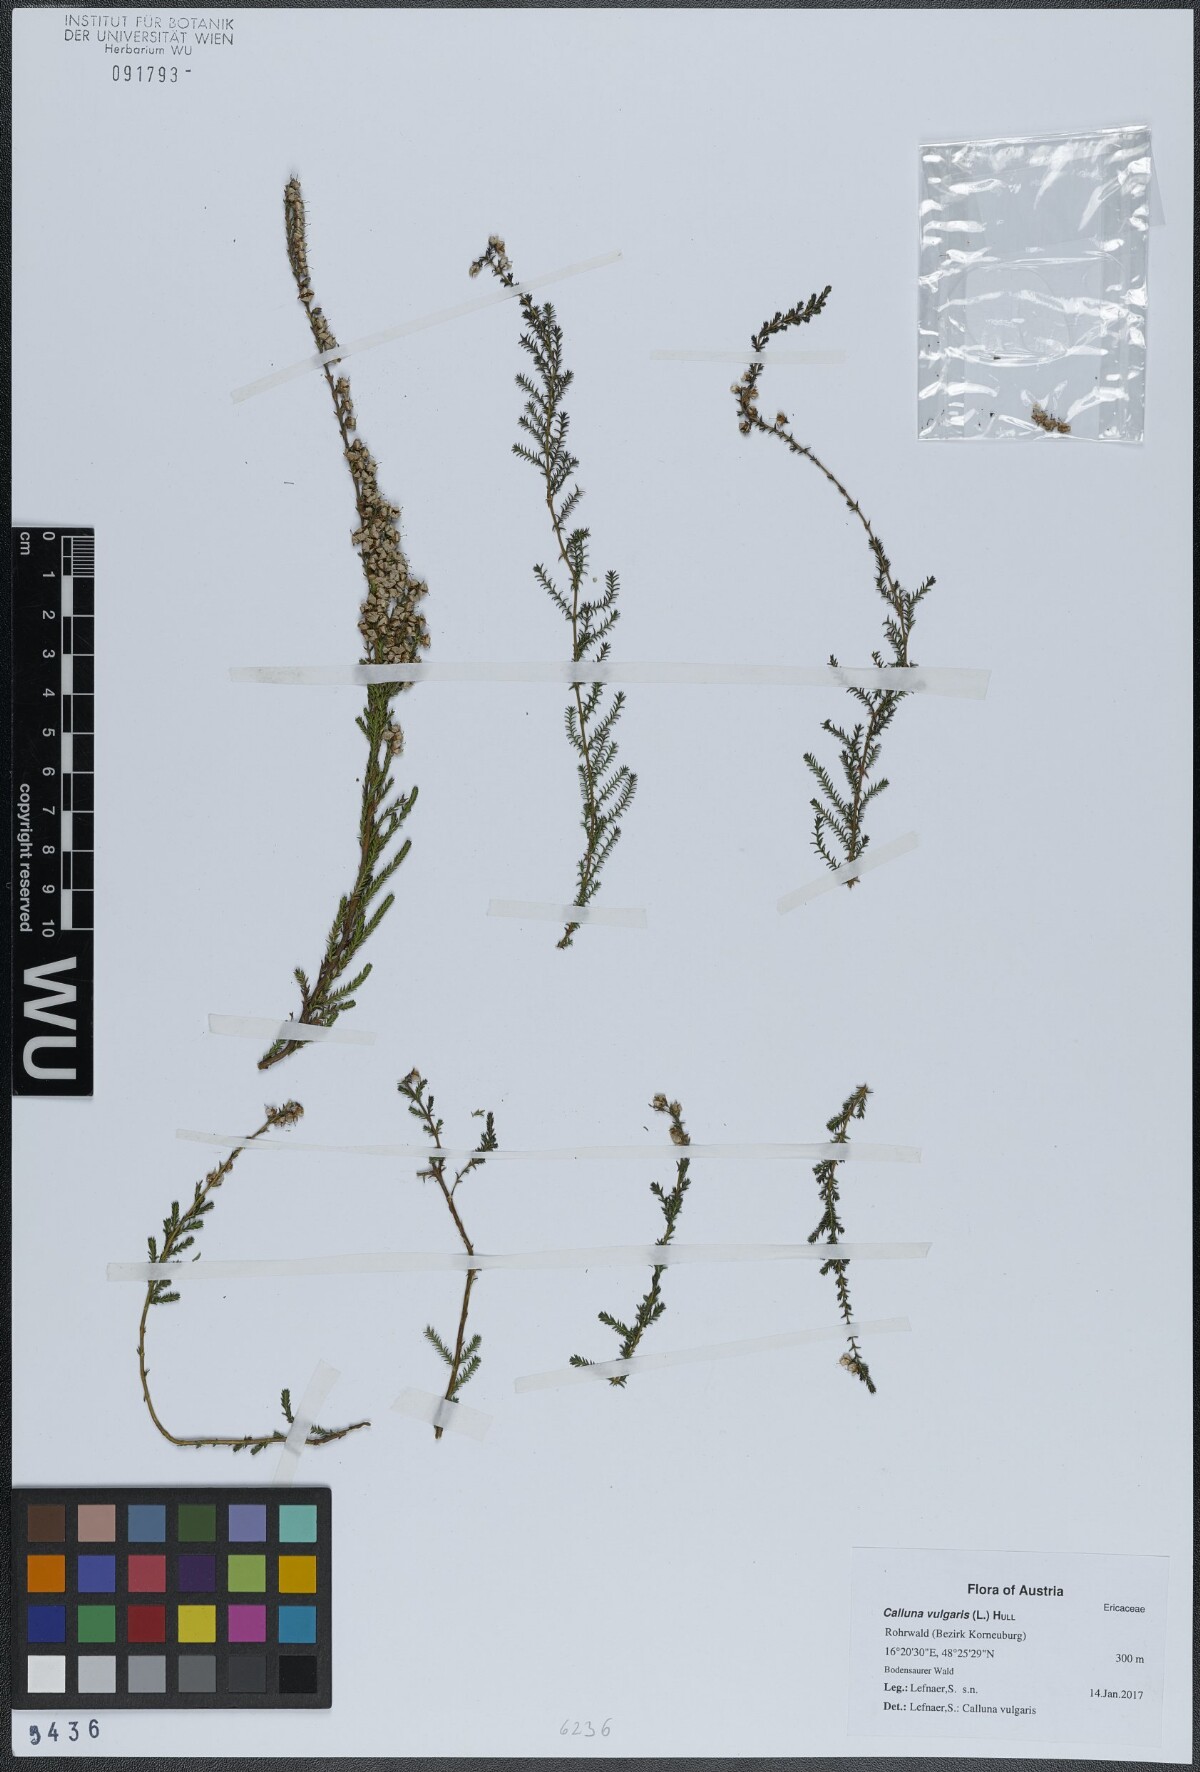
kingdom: Plantae
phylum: Tracheophyta
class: Magnoliopsida
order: Ericales
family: Ericaceae
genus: Calluna
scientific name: Calluna vulgaris
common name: Heather
